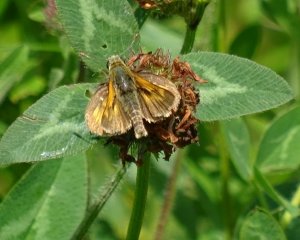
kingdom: Animalia
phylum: Arthropoda
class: Insecta
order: Lepidoptera
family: Hesperiidae
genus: Polites
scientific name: Polites
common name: Long Dash Skipper
